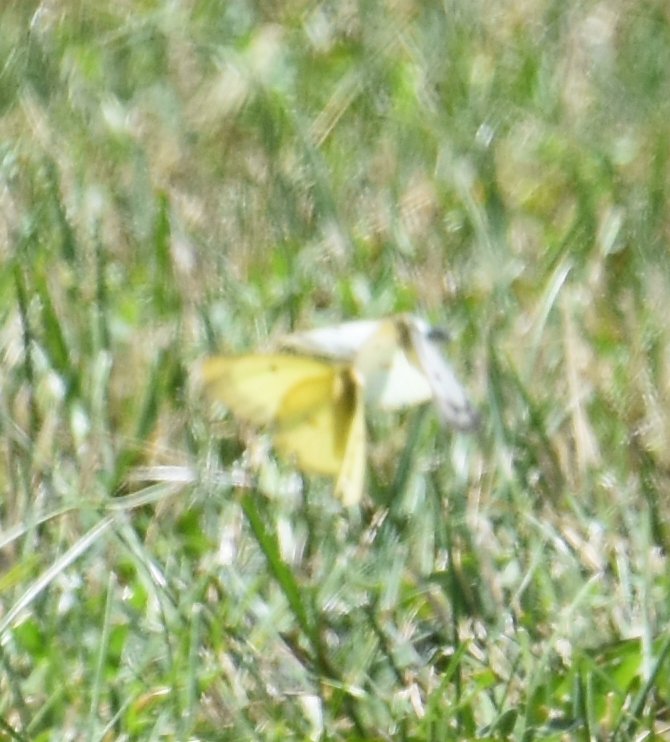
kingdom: Animalia
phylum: Arthropoda
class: Insecta
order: Lepidoptera
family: Pieridae
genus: Colias
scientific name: Colias philodice
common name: Clouded Sulphur
